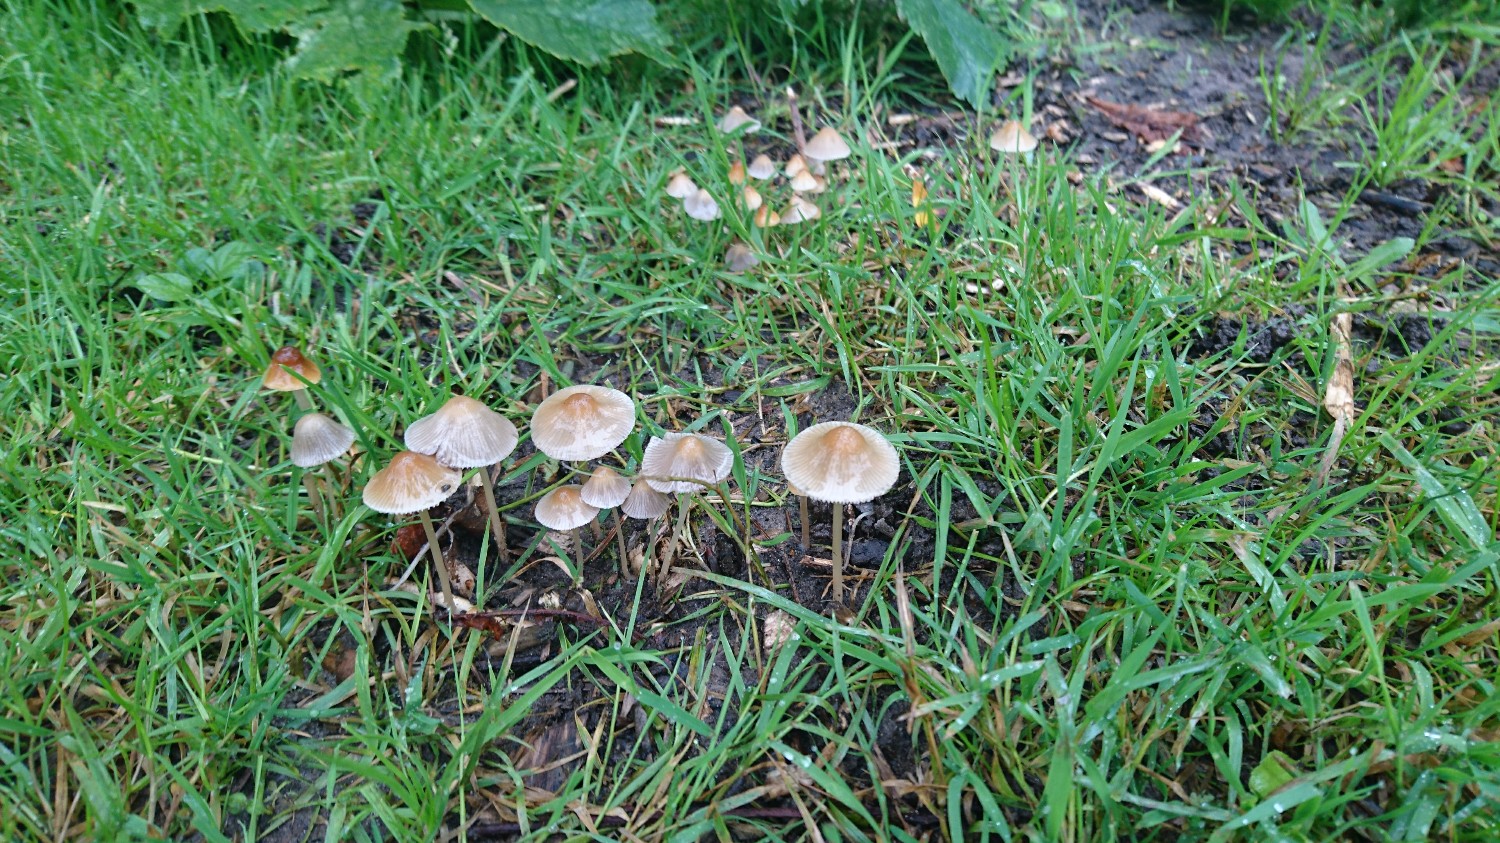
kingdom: Fungi
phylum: Basidiomycota
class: Agaricomycetes
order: Agaricales
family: Psathyrellaceae
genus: Psathyrella
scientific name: Psathyrella pseudogracilis
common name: slank mørkhat
